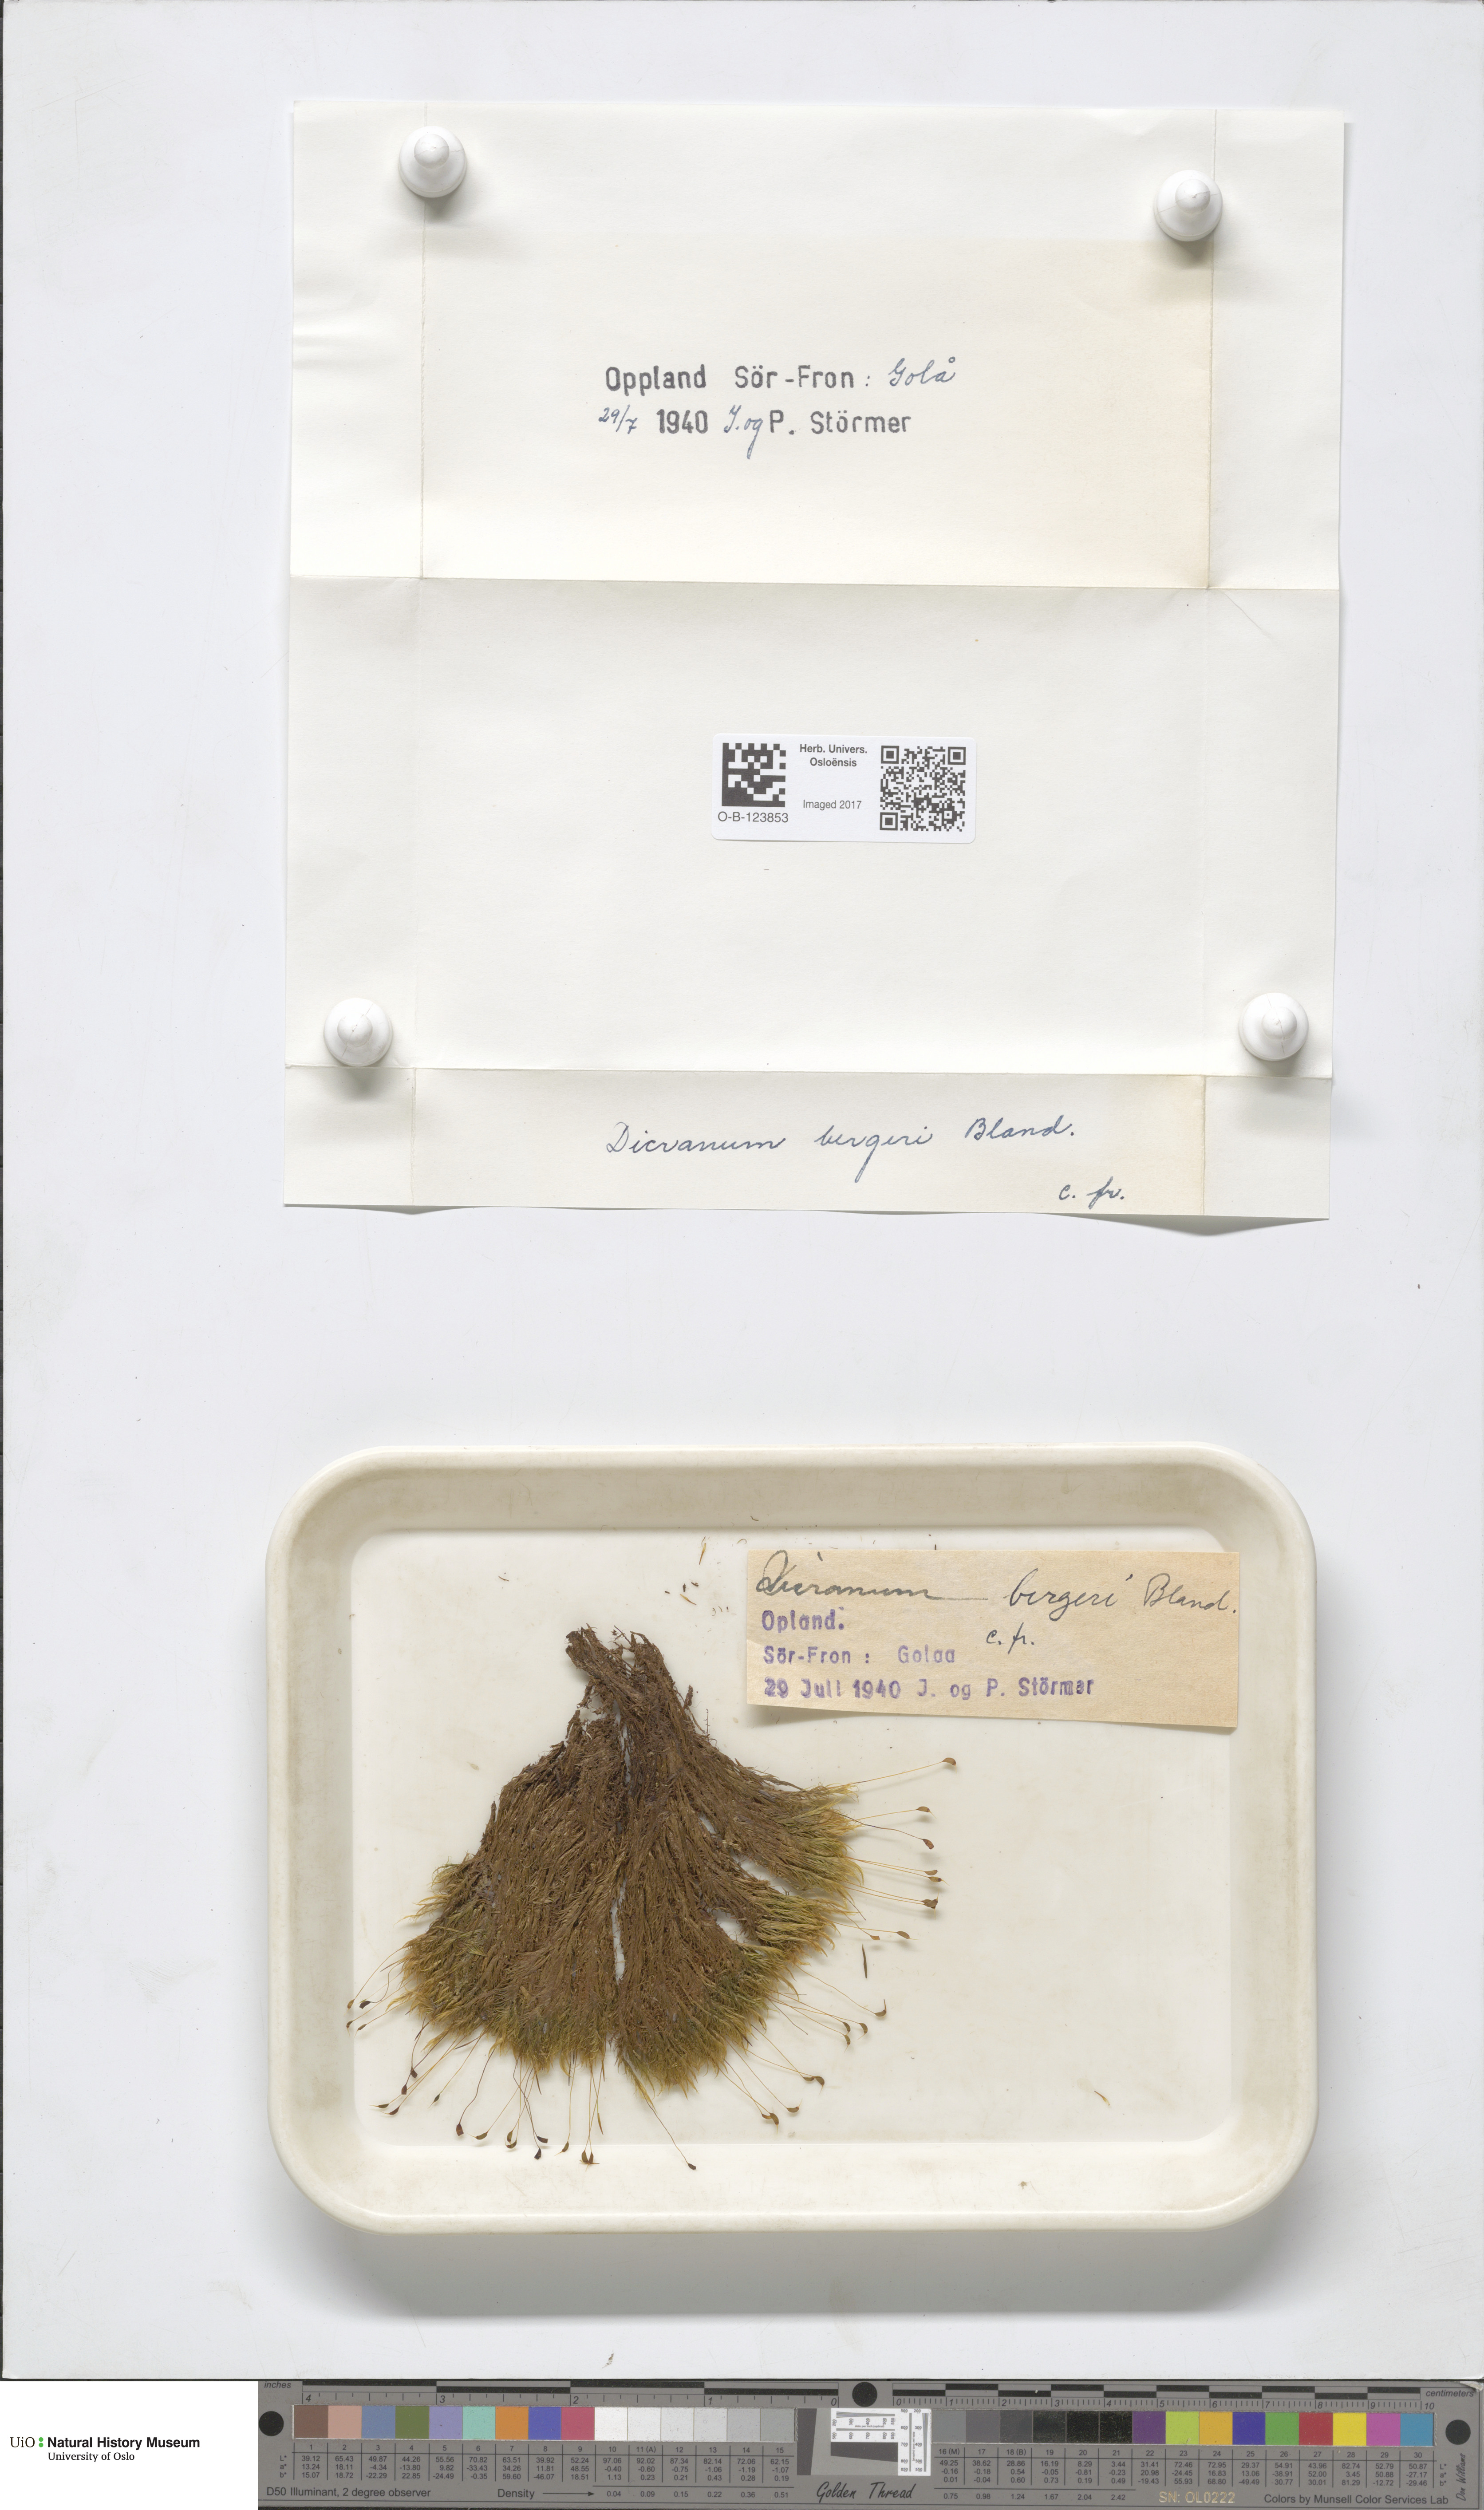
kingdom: Plantae
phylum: Bryophyta
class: Bryopsida
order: Dicranales
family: Dicranaceae
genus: Dicranum
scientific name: Dicranum undulatum
